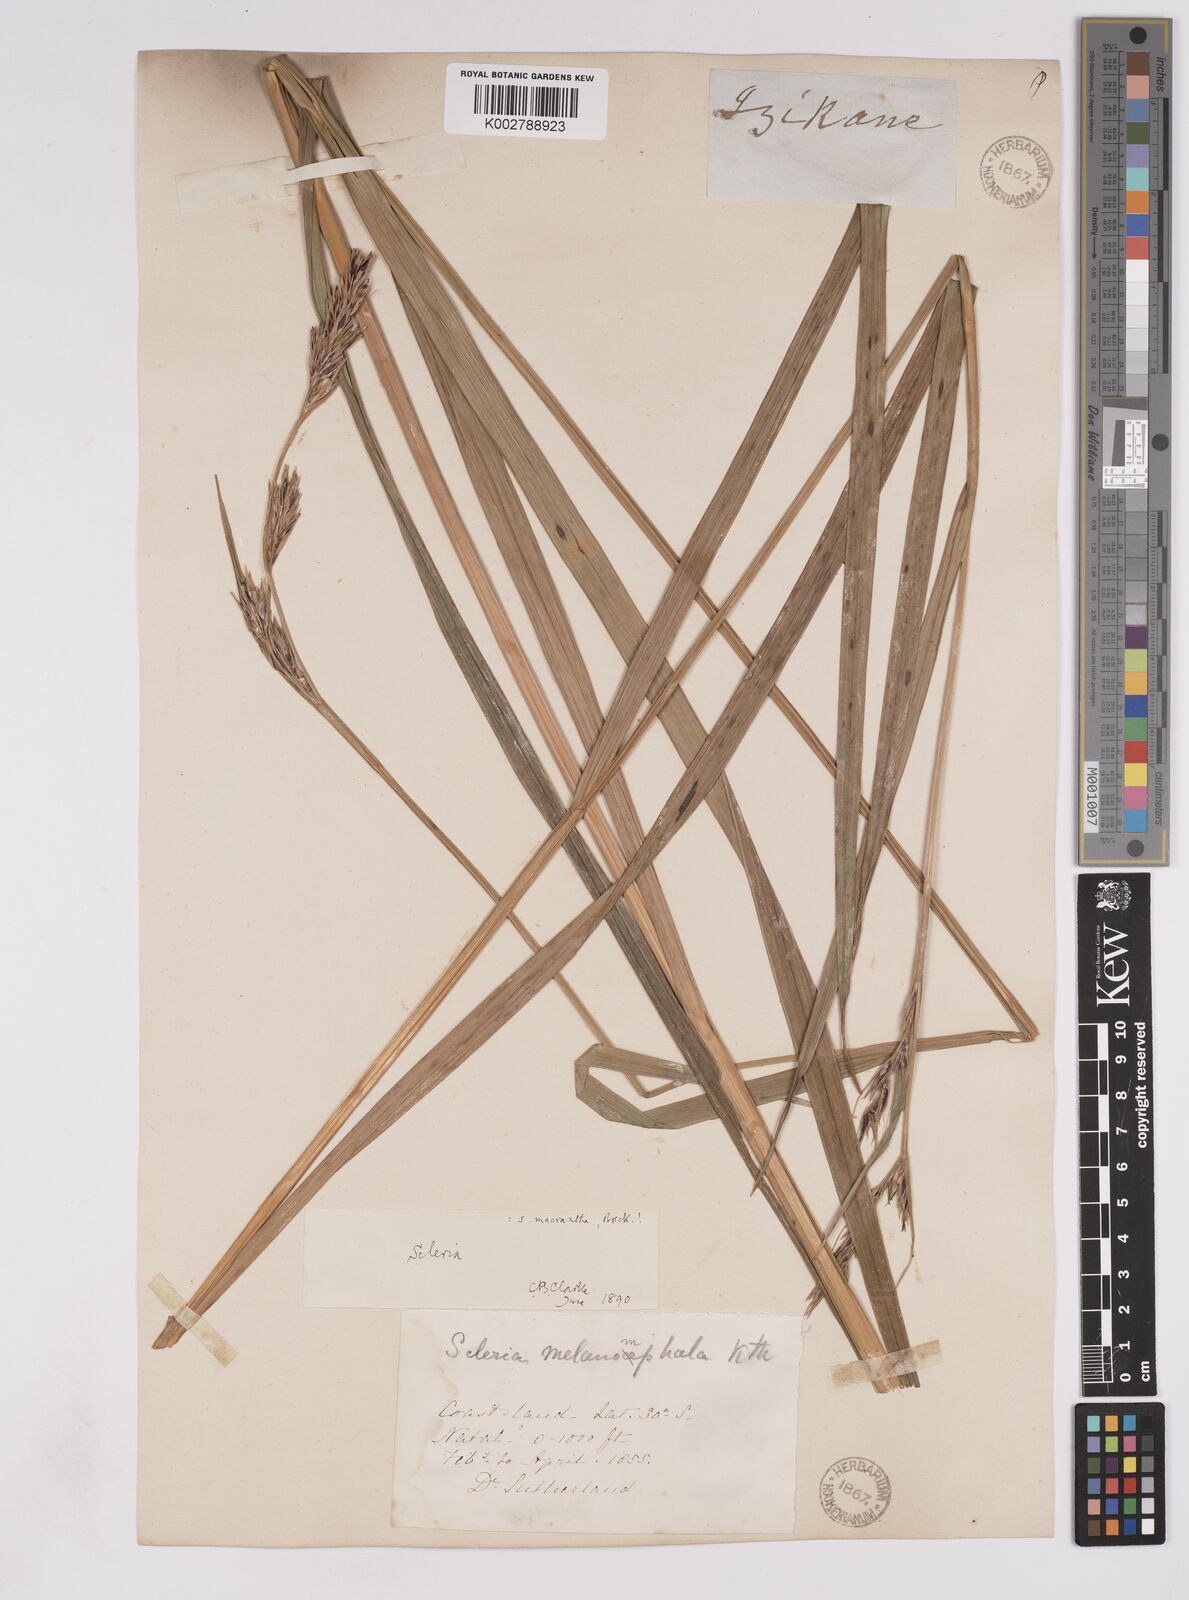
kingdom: Plantae
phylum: Tracheophyta
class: Liliopsida
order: Poales
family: Cyperaceae
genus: Scleria
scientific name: Scleria melanomphala
